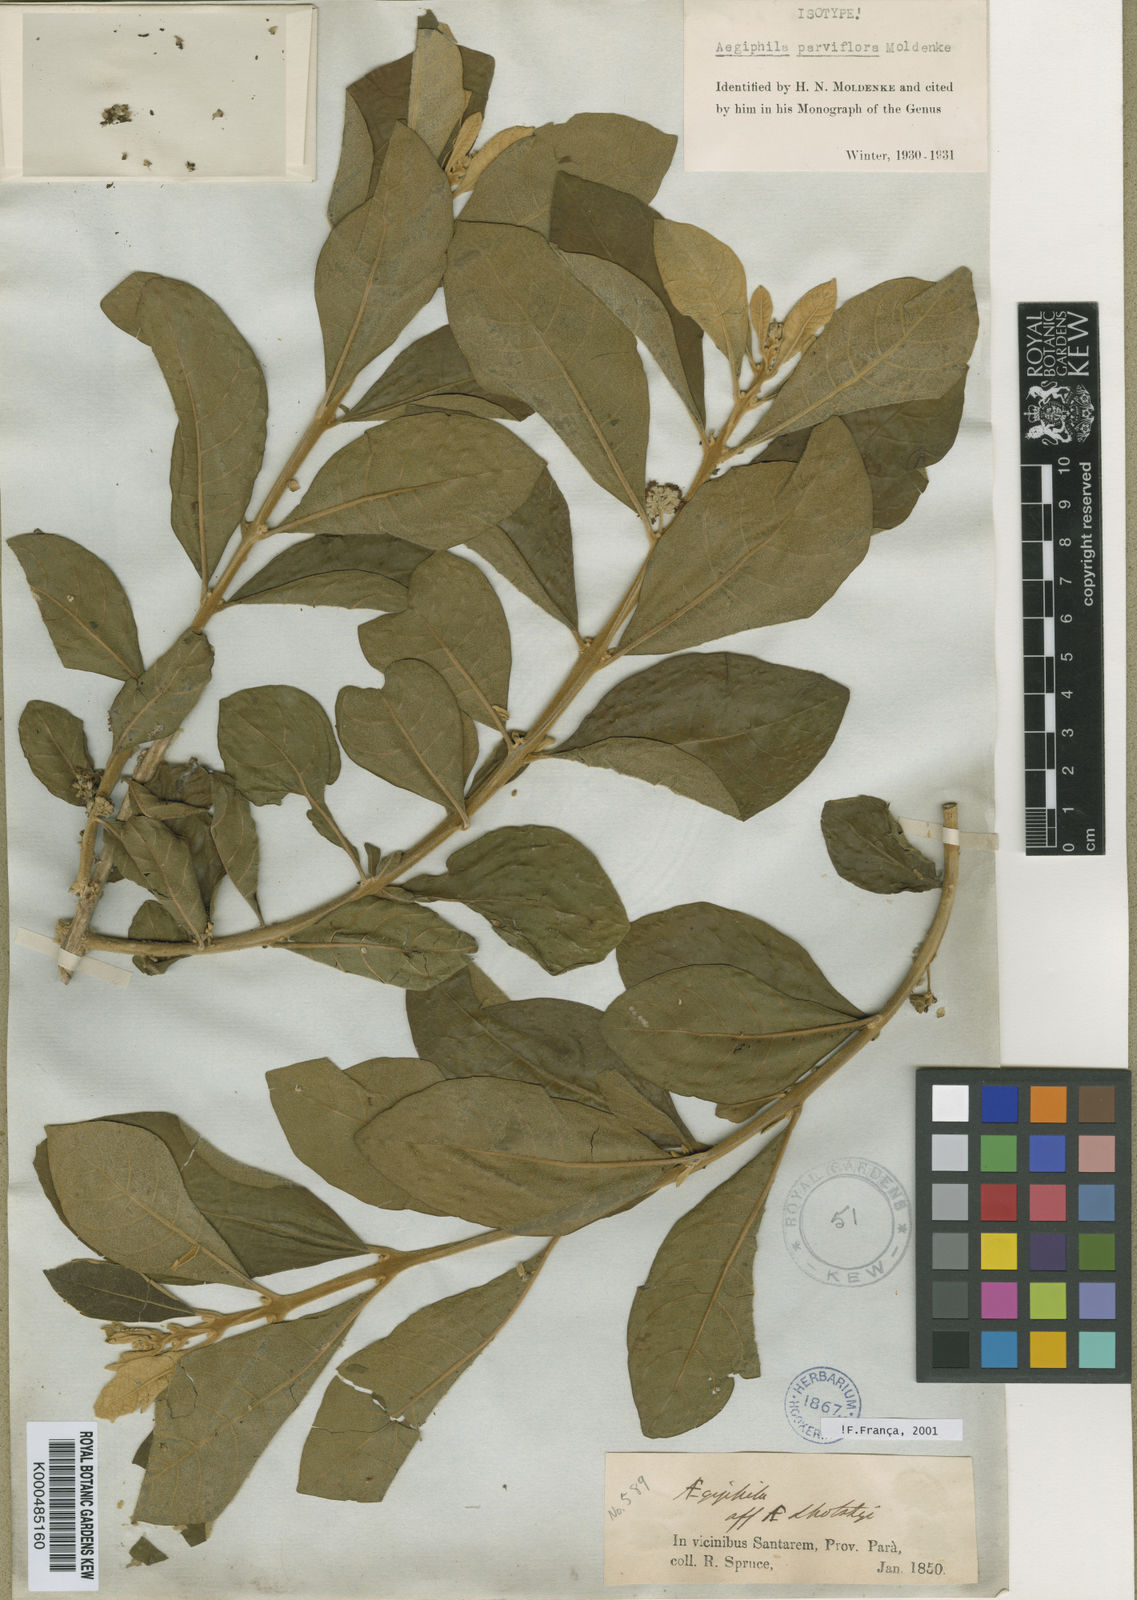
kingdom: Plantae
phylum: Tracheophyta
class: Magnoliopsida
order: Lamiales
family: Lamiaceae
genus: Aegiphila
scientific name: Aegiphila integrifolia
